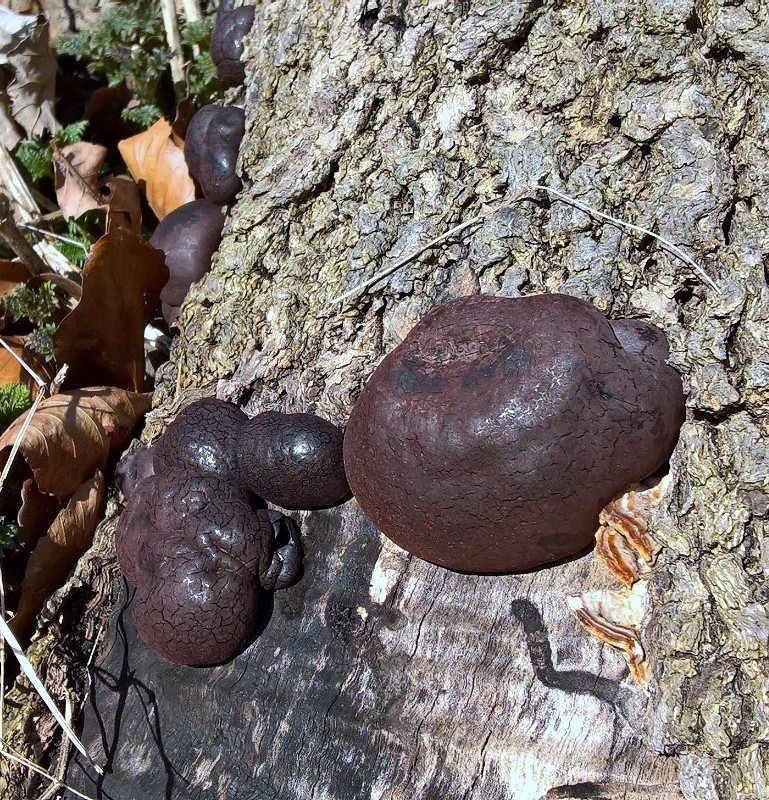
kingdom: Fungi
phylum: Ascomycota
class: Sordariomycetes
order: Xylariales
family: Hypoxylaceae
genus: Daldinia
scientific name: Daldinia concentrica
